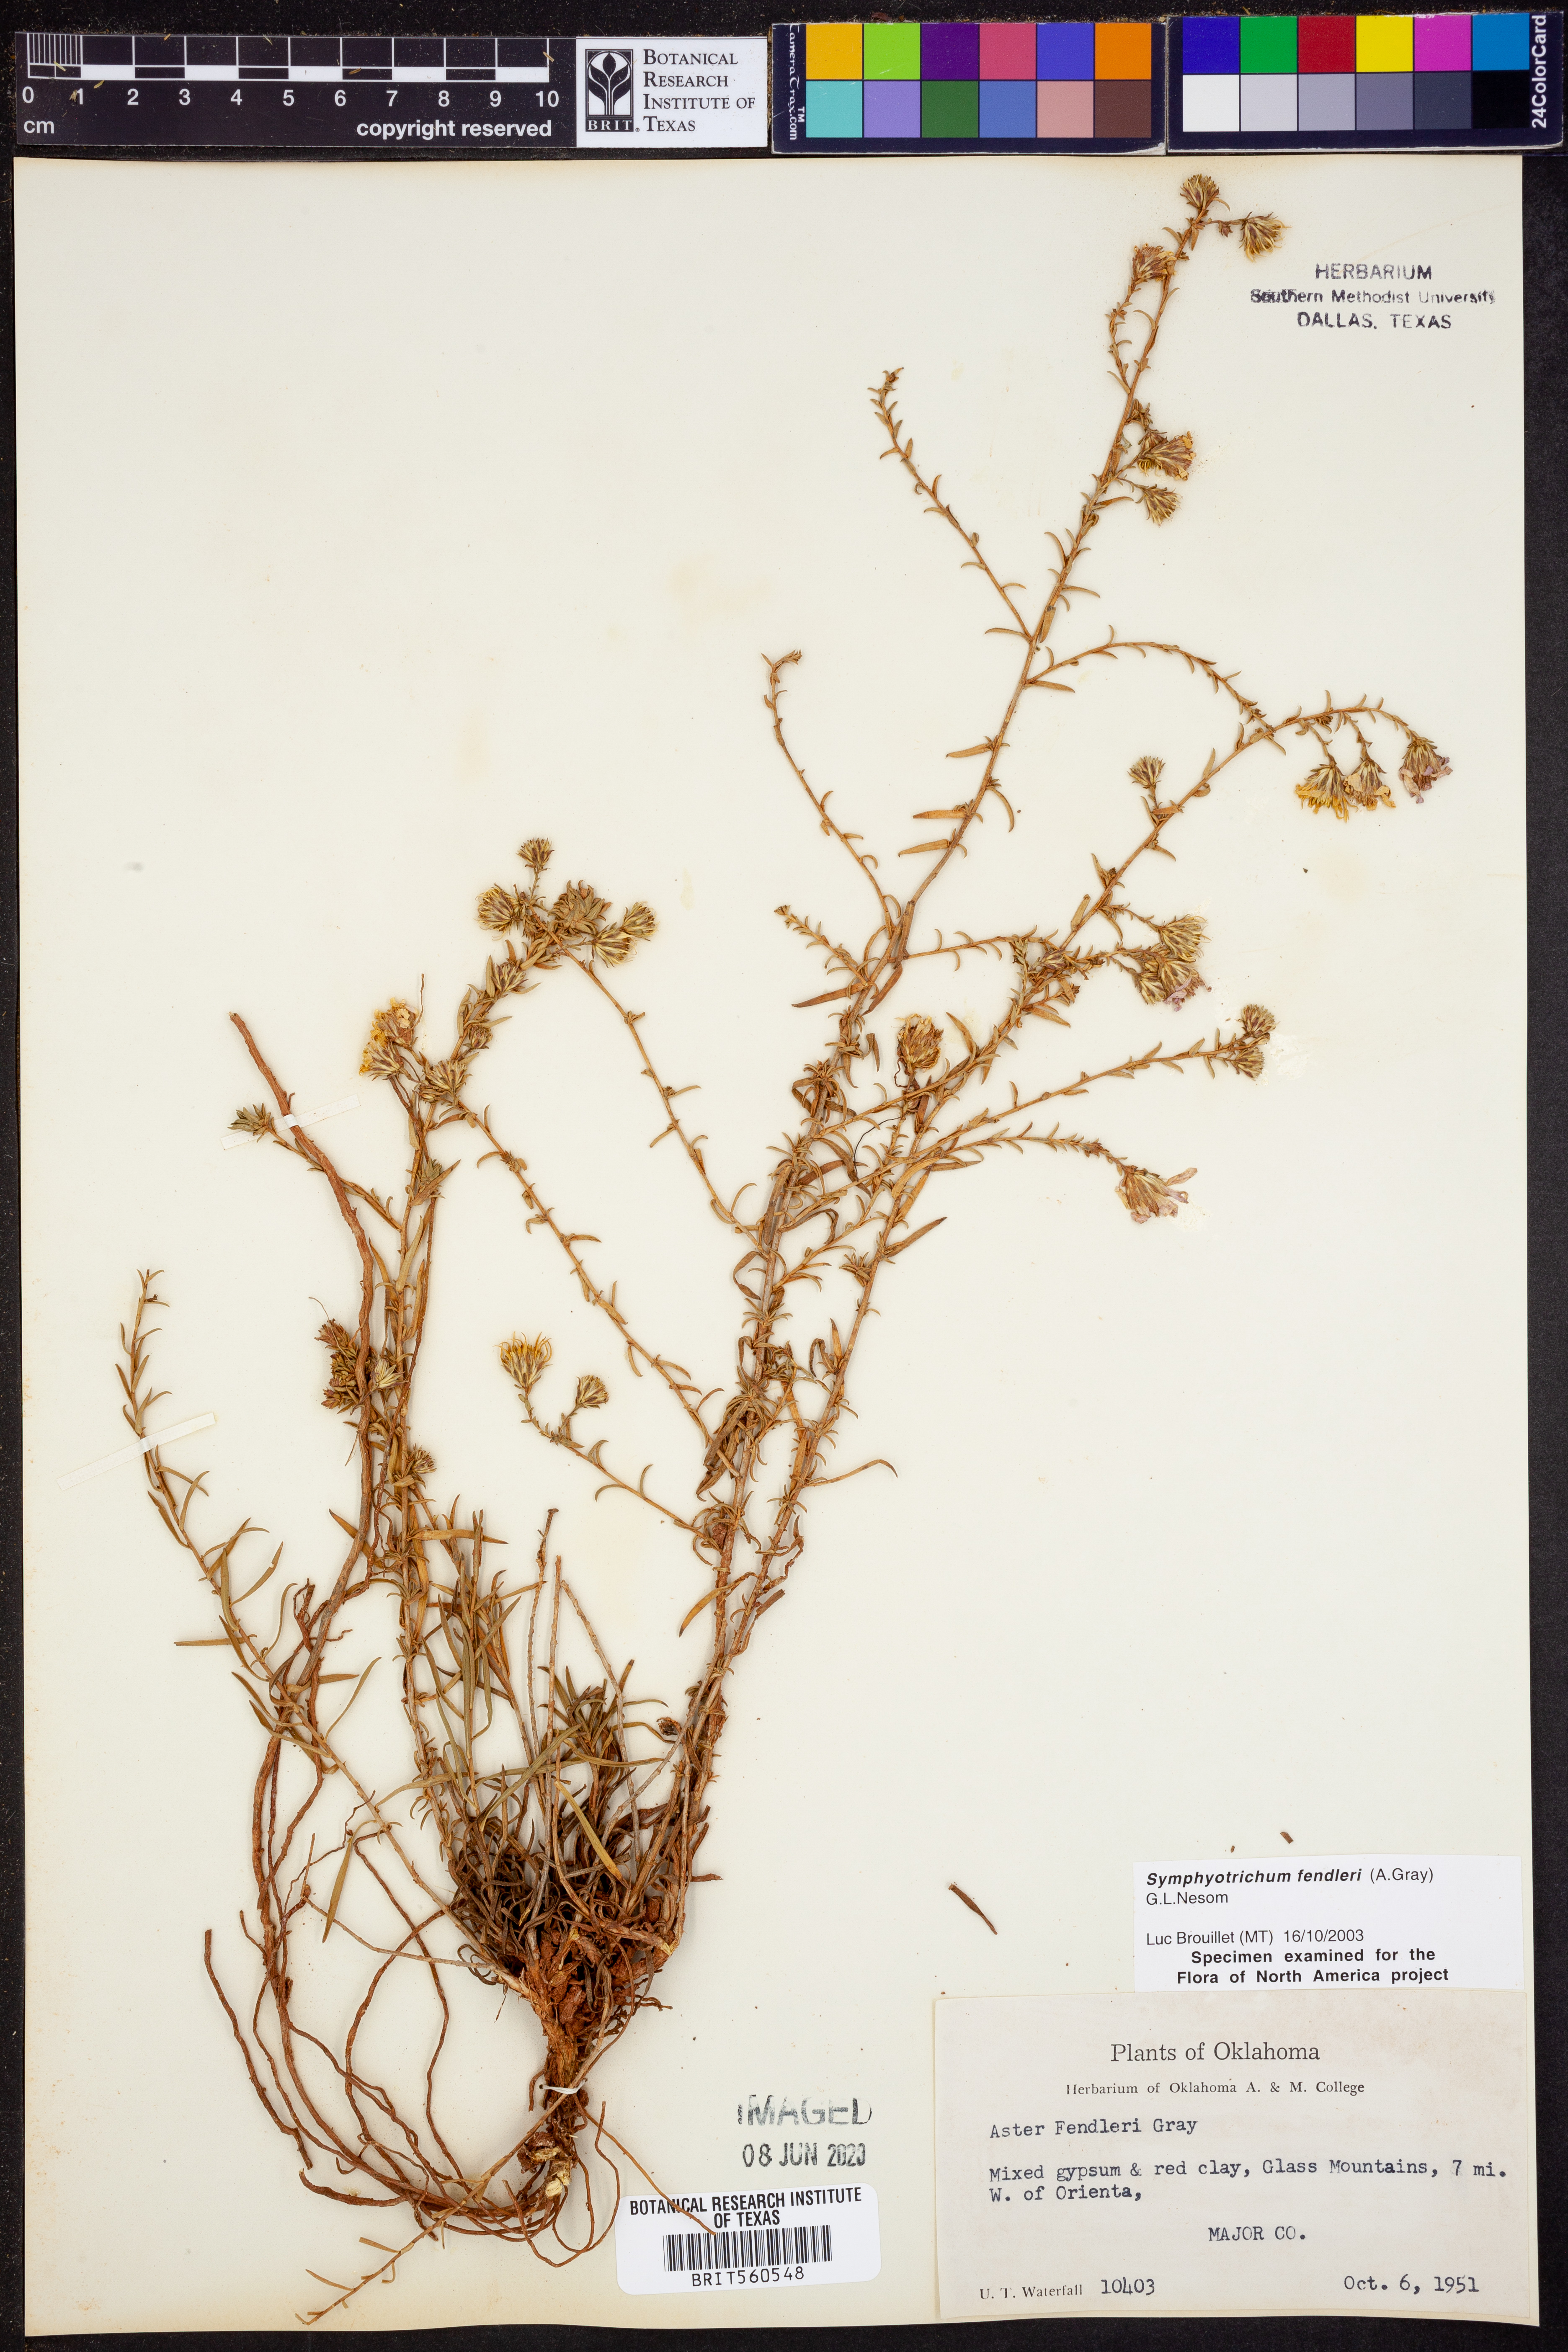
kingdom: Plantae
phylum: Tracheophyta
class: Magnoliopsida
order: Asterales
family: Asteraceae
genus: Symphyotrichum
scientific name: Symphyotrichum fendleri
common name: Fendler's aster
